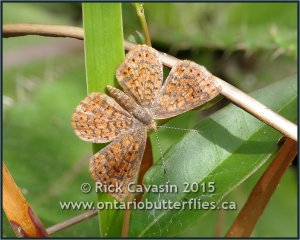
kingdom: Animalia
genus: Calephelis
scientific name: Calephelis virginiensis
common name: Little Metalmark
